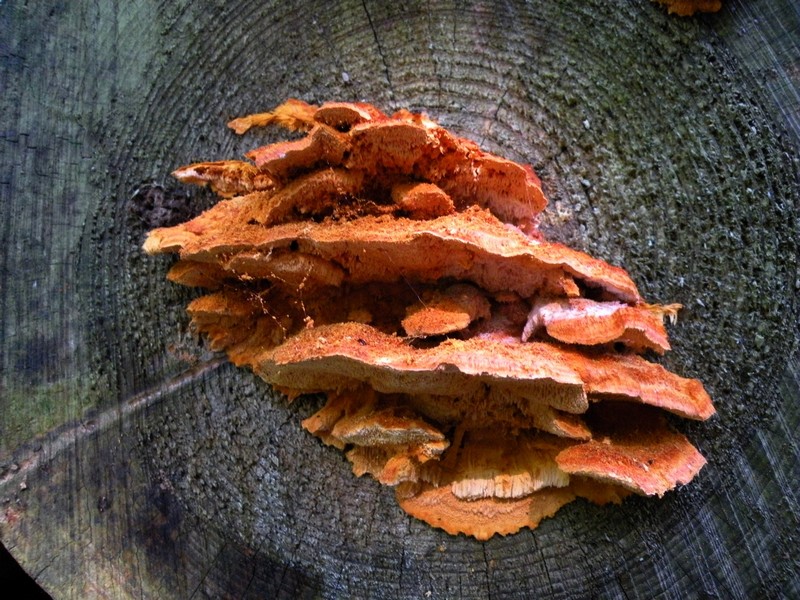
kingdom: Fungi
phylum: Basidiomycota
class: Agaricomycetes
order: Polyporales
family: Pycnoporellaceae
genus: Pycnoporellus
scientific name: Pycnoporellus fulgens
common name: flammeporesvamp
